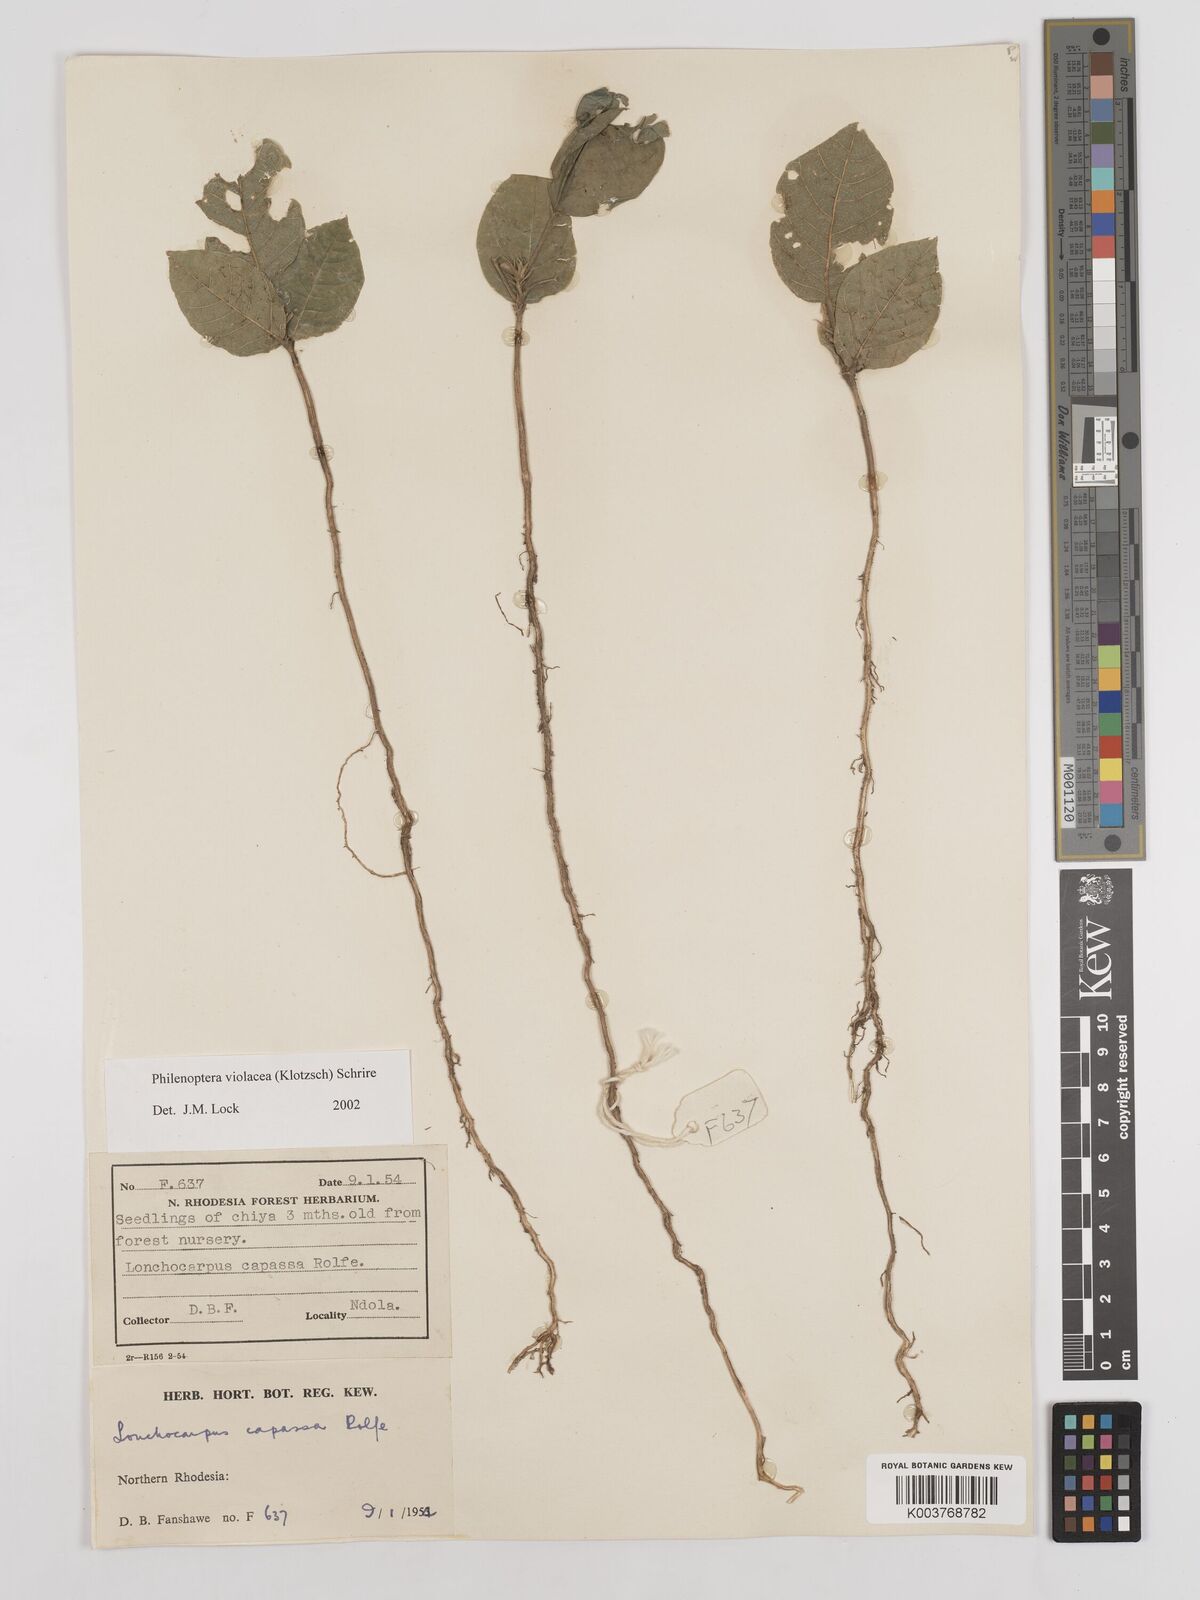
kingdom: Plantae
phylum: Tracheophyta
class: Magnoliopsida
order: Fabales
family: Fabaceae
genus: Philenoptera
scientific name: Philenoptera violacea
